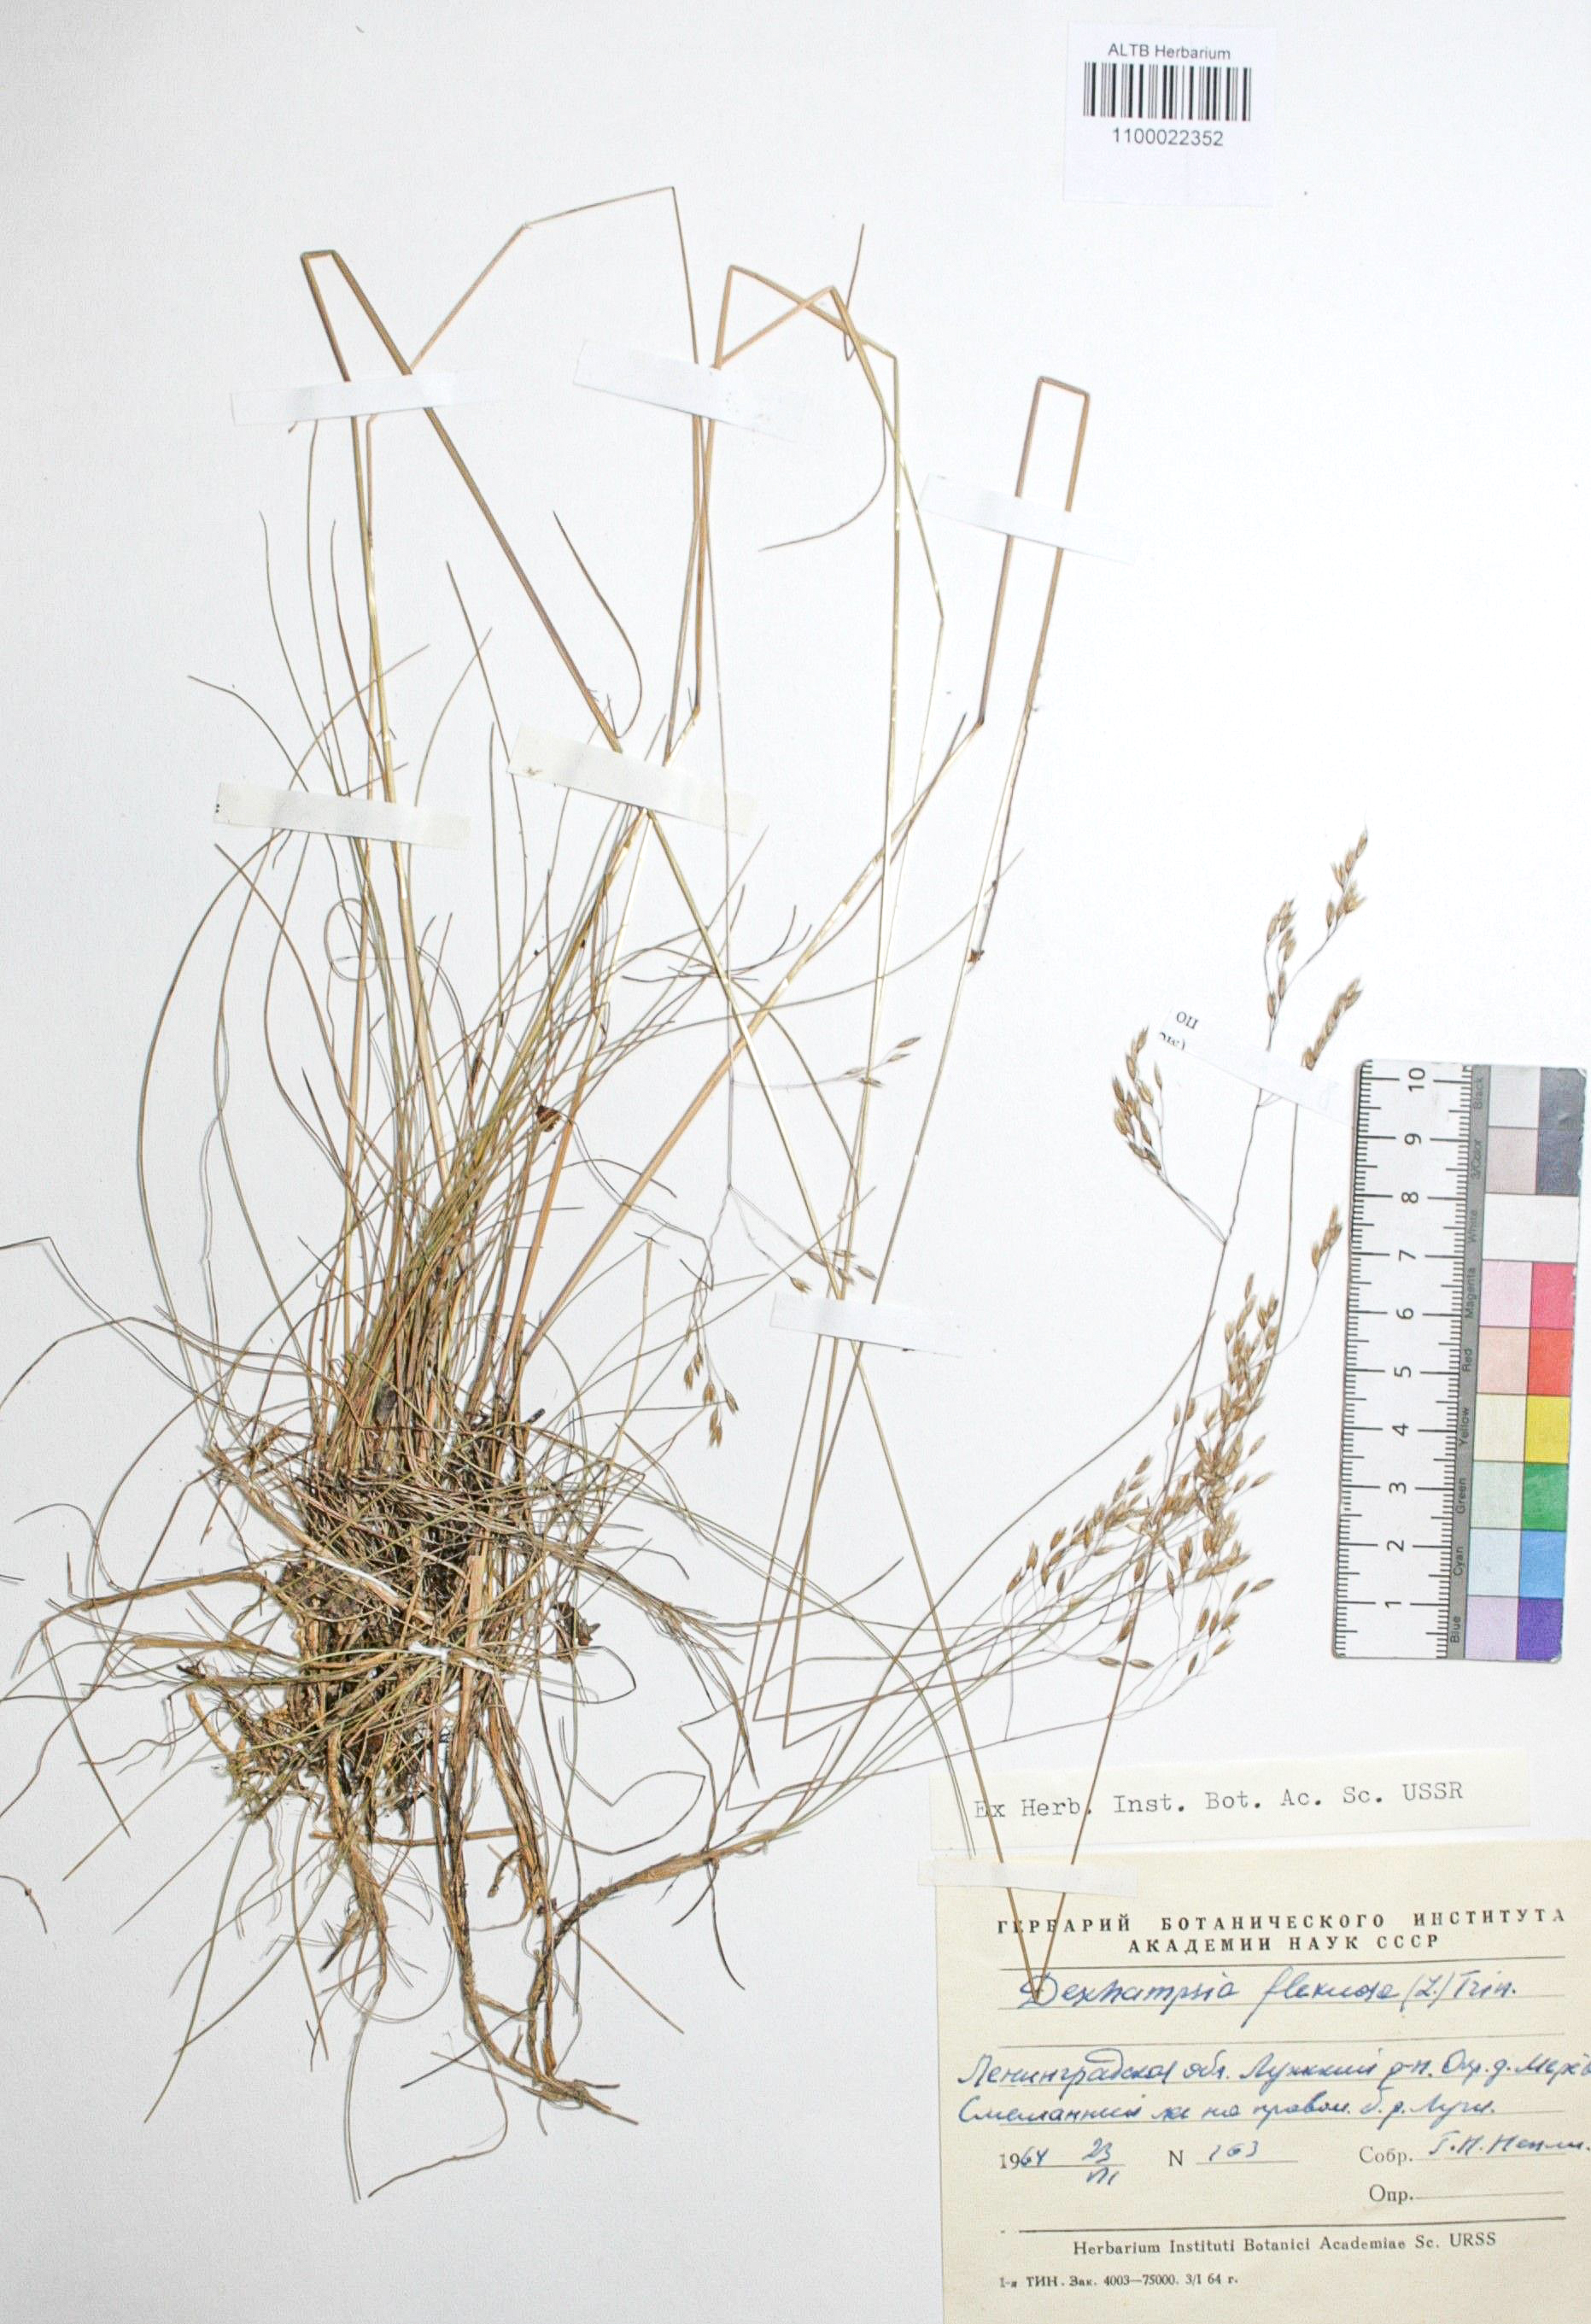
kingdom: Plantae
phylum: Tracheophyta
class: Liliopsida
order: Poales
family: Poaceae
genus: Avenella
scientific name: Avenella flexuosa
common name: Wavy hairgrass
